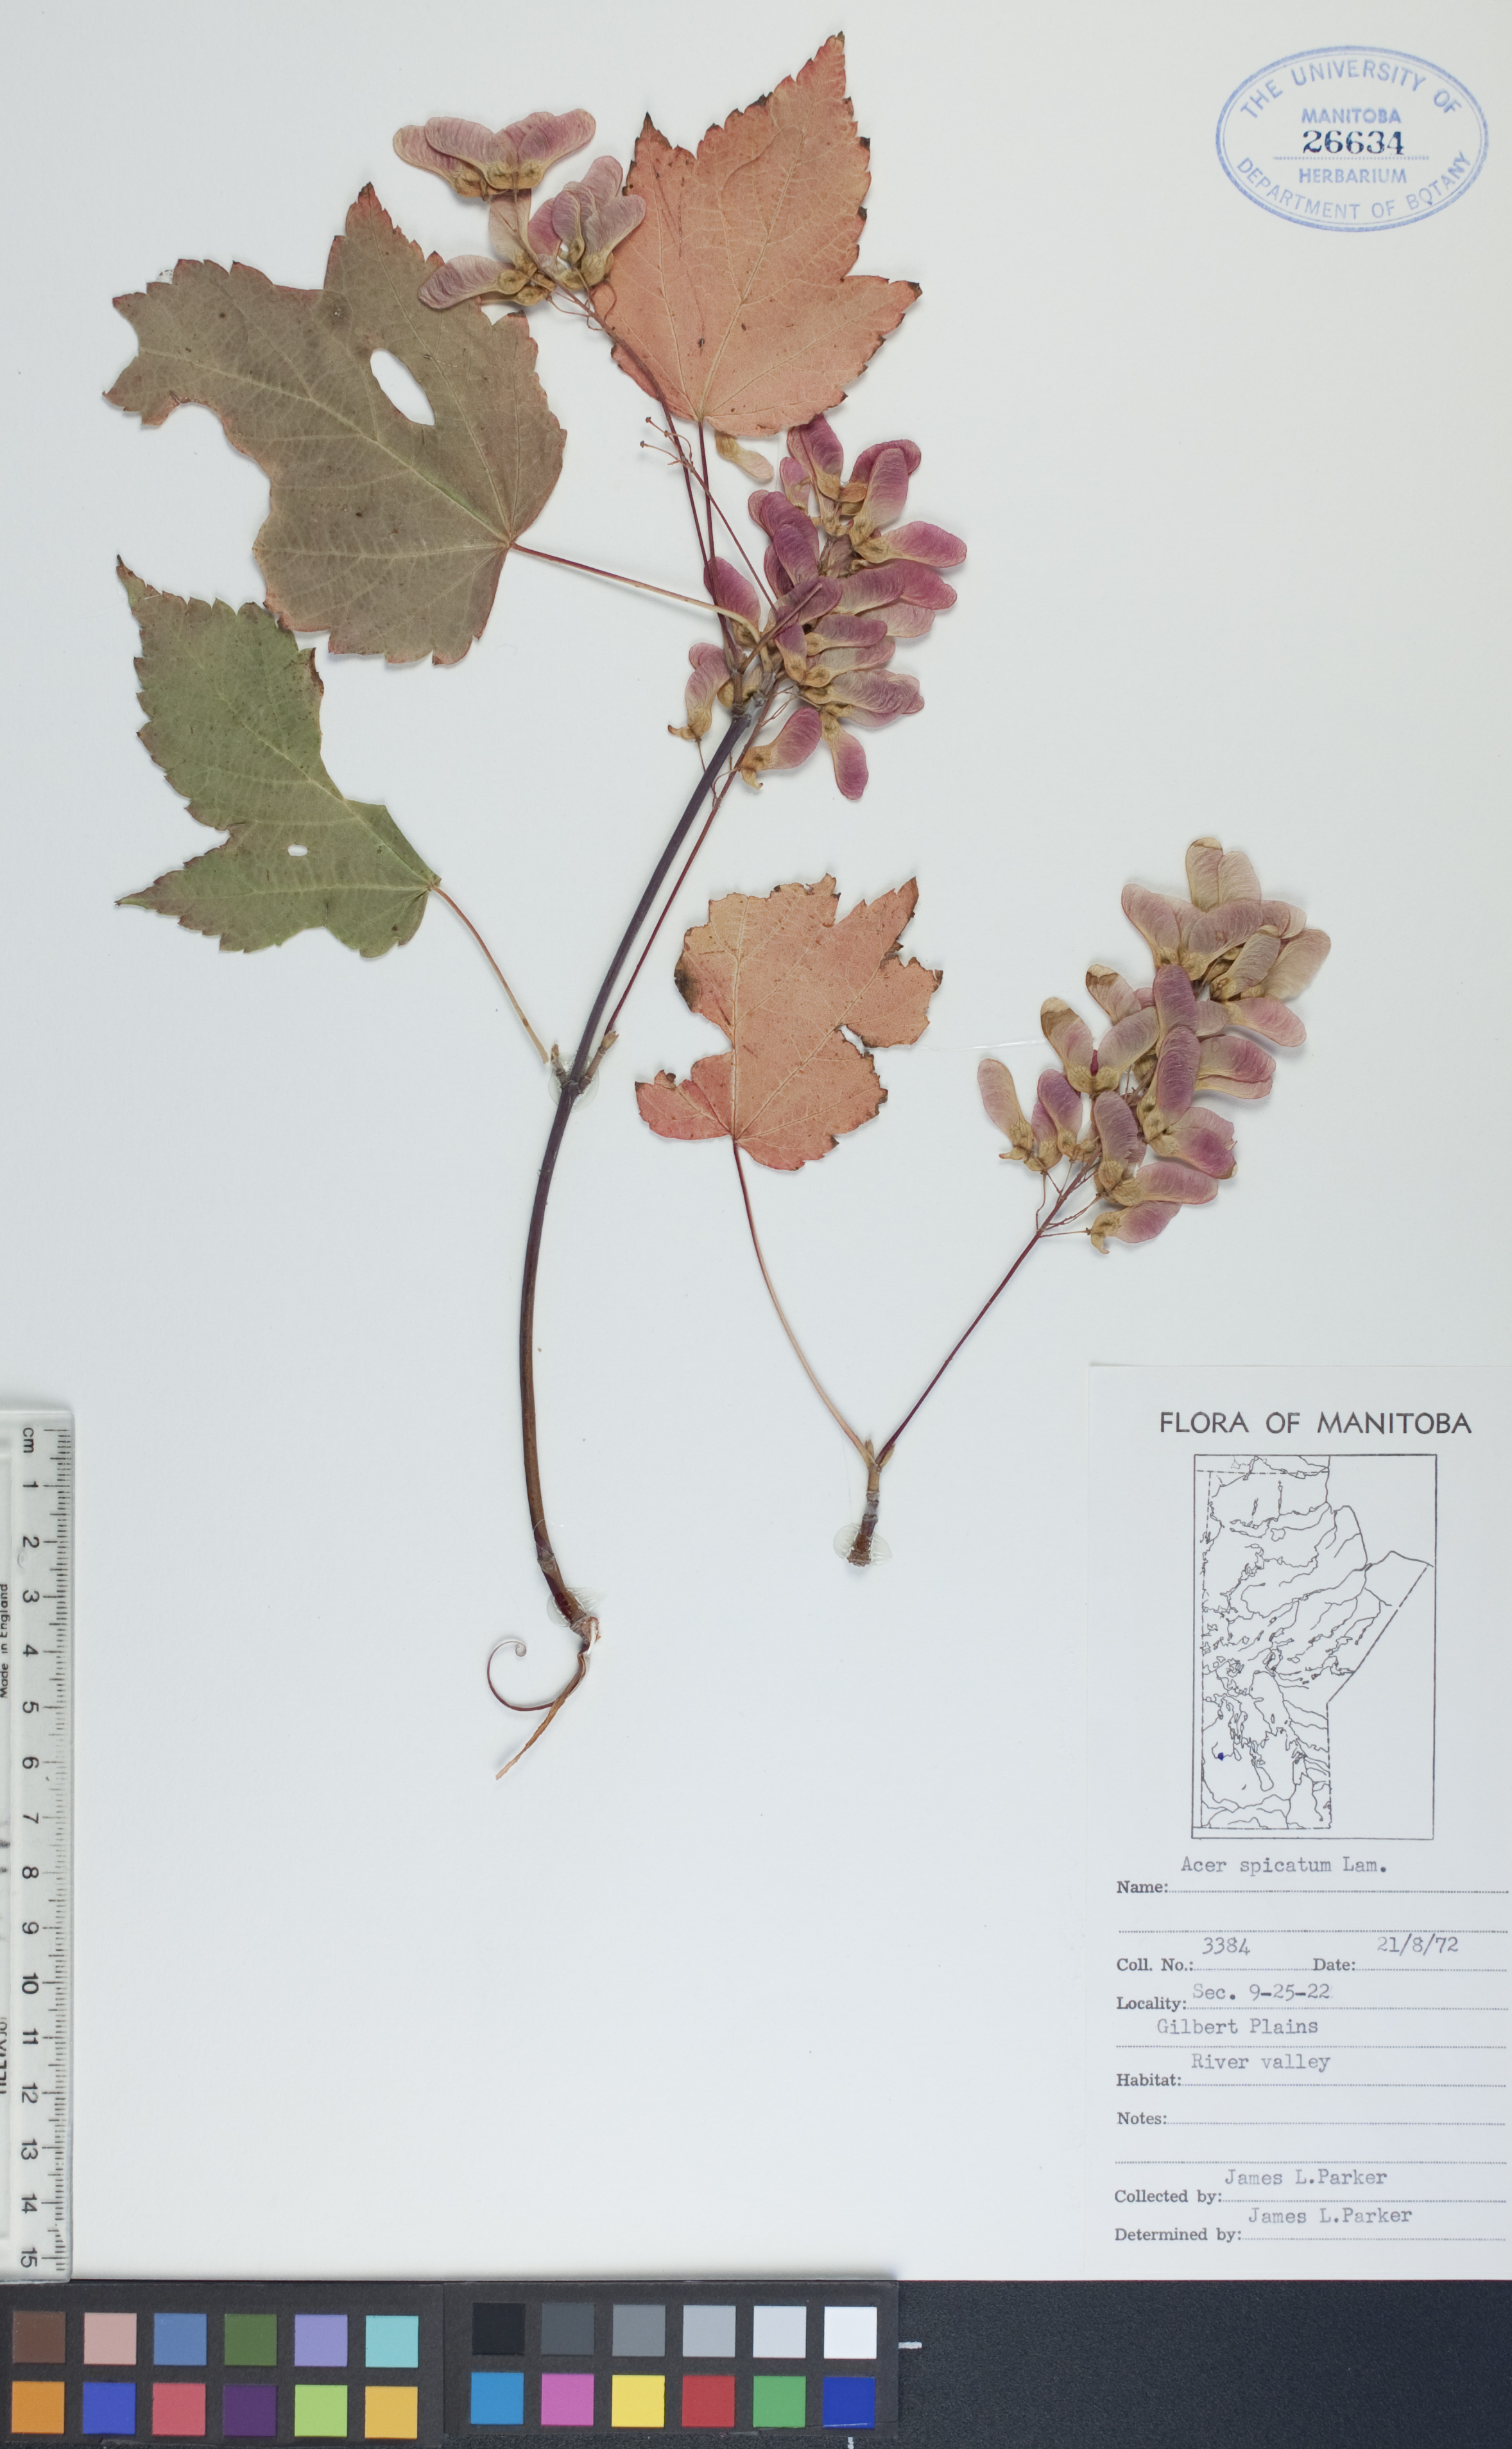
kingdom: Plantae
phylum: Tracheophyta
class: Magnoliopsida
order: Sapindales
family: Sapindaceae
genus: Acer
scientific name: Acer spicatum
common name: Mountain maple
